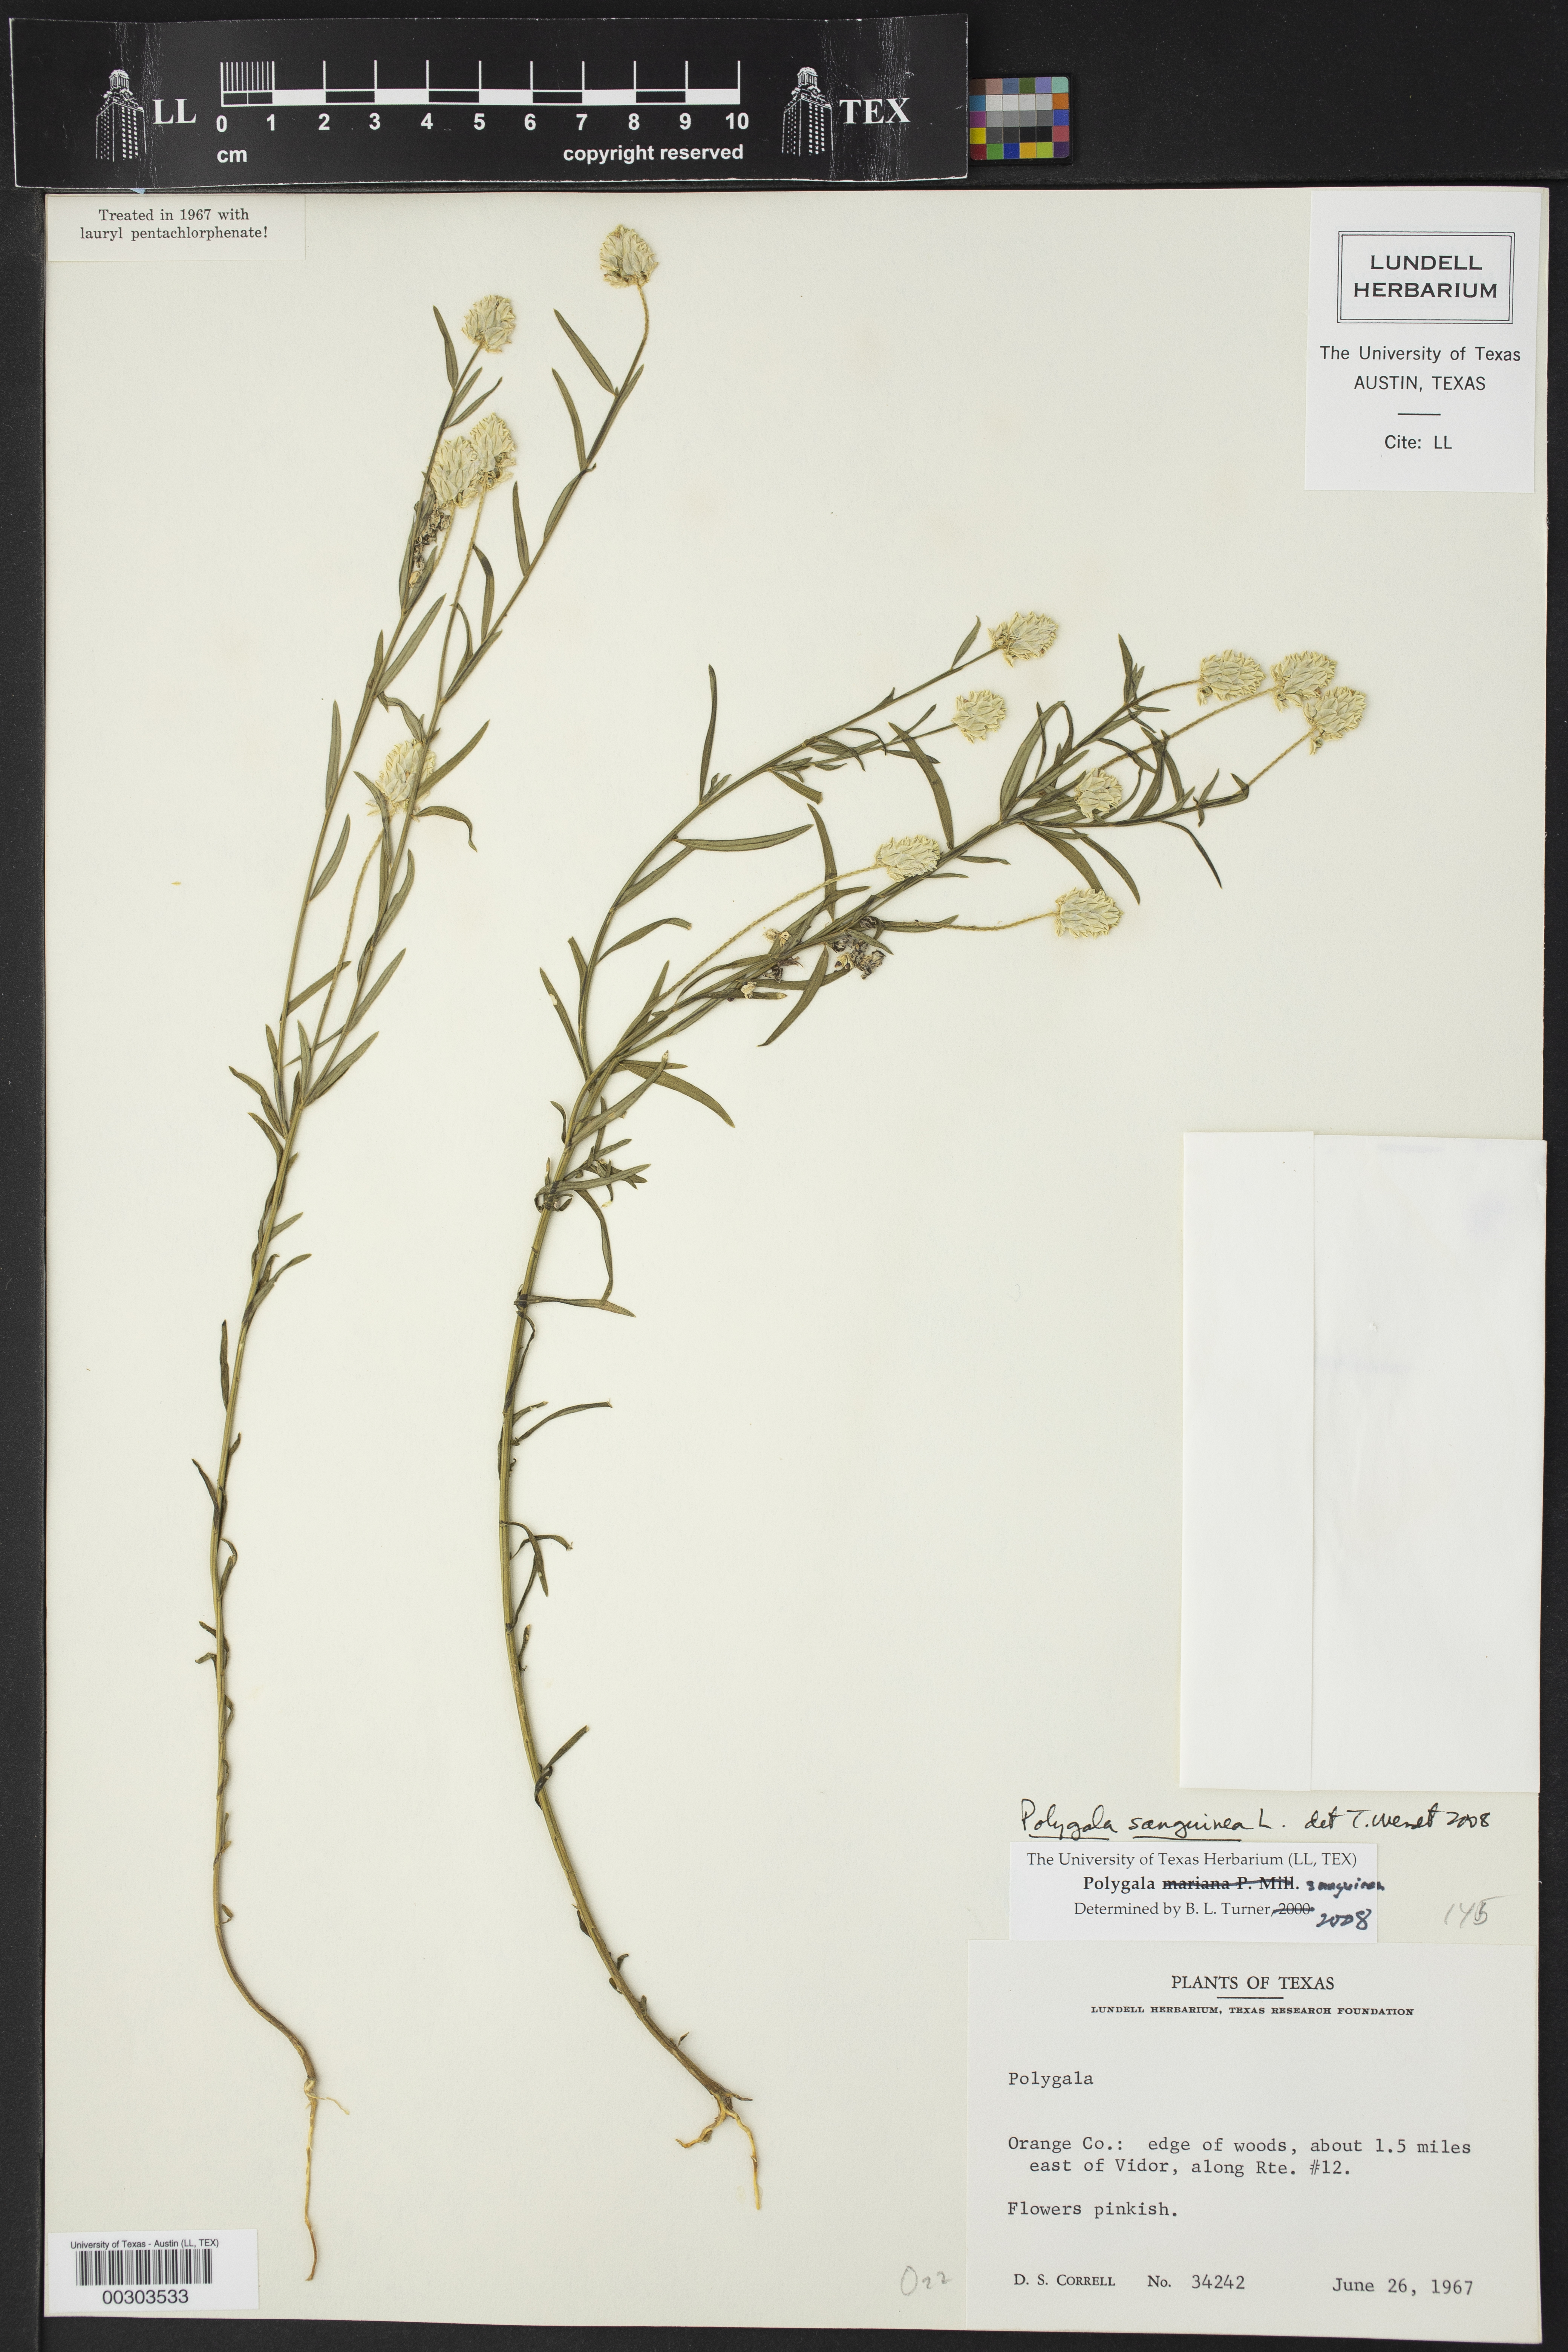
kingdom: Plantae
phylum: Tracheophyta
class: Magnoliopsida
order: Fabales
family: Polygalaceae
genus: Polygala
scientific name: Polygala sanguinea
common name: Blood milkwort
